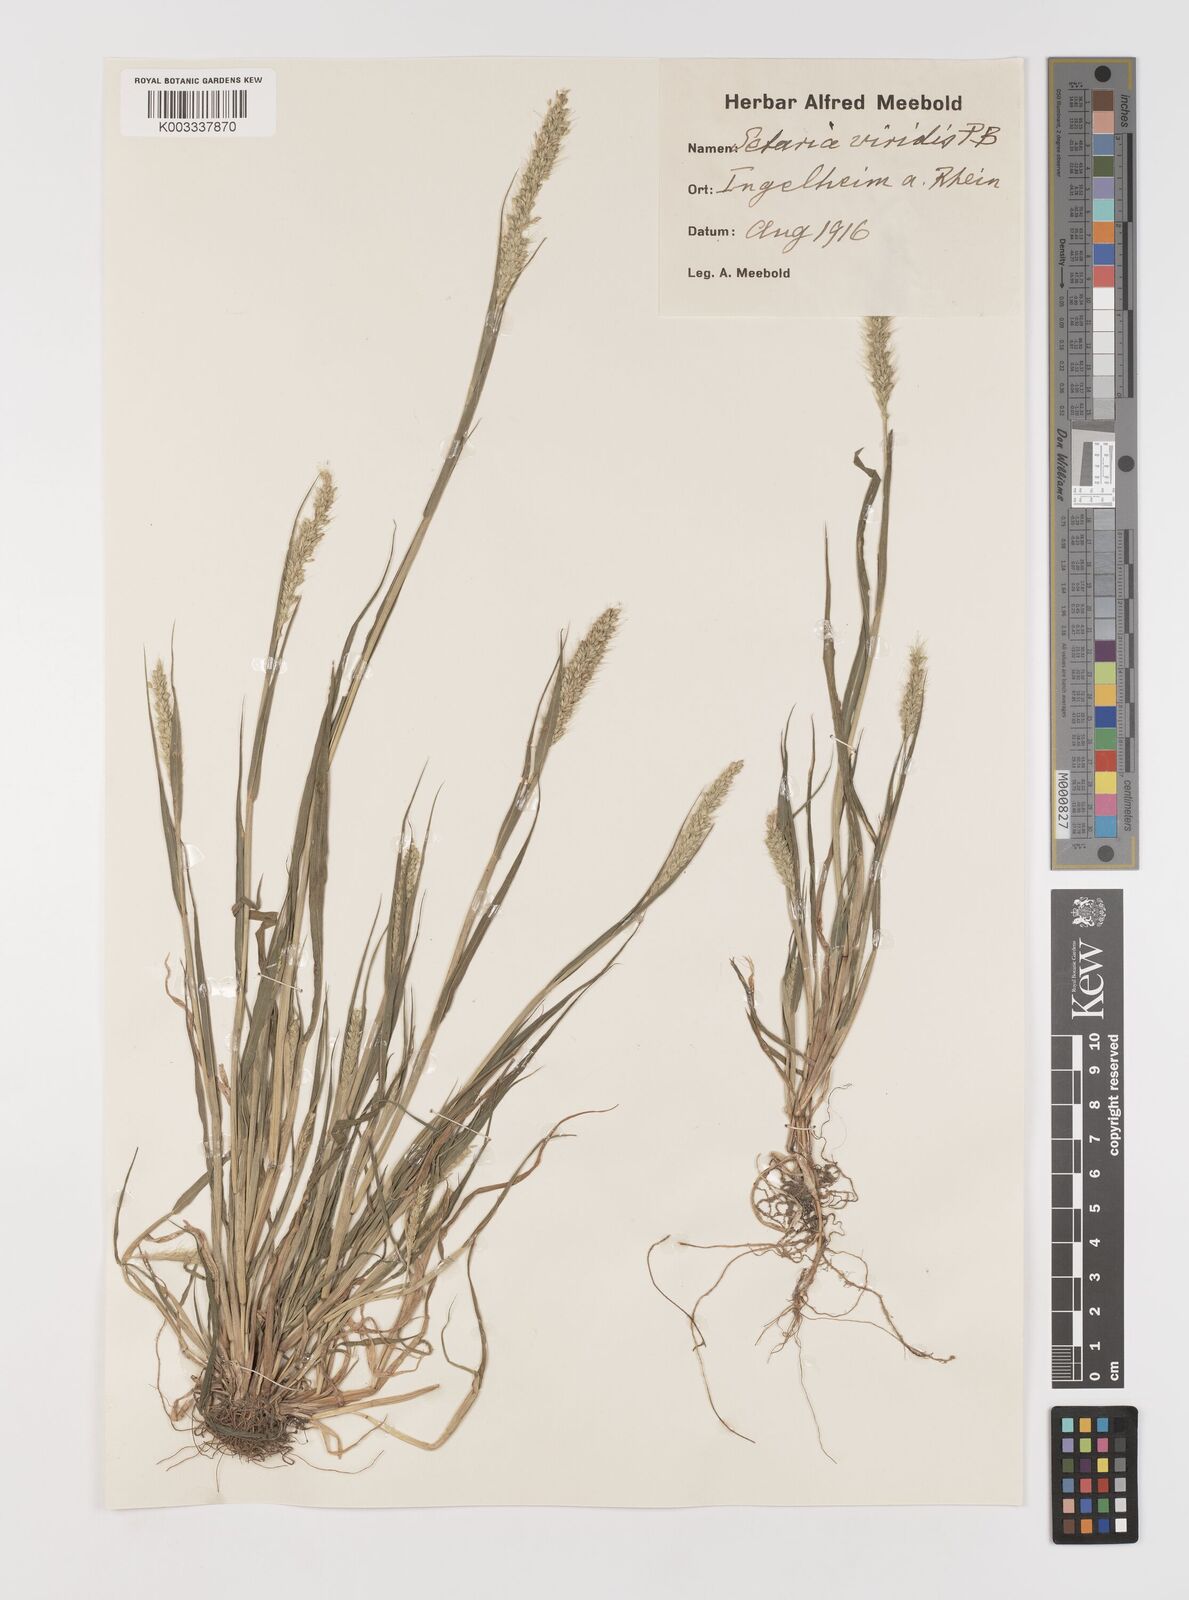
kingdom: Plantae
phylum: Tracheophyta
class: Liliopsida
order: Poales
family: Poaceae
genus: Setaria
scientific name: Setaria viridis
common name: Green bristlegrass
